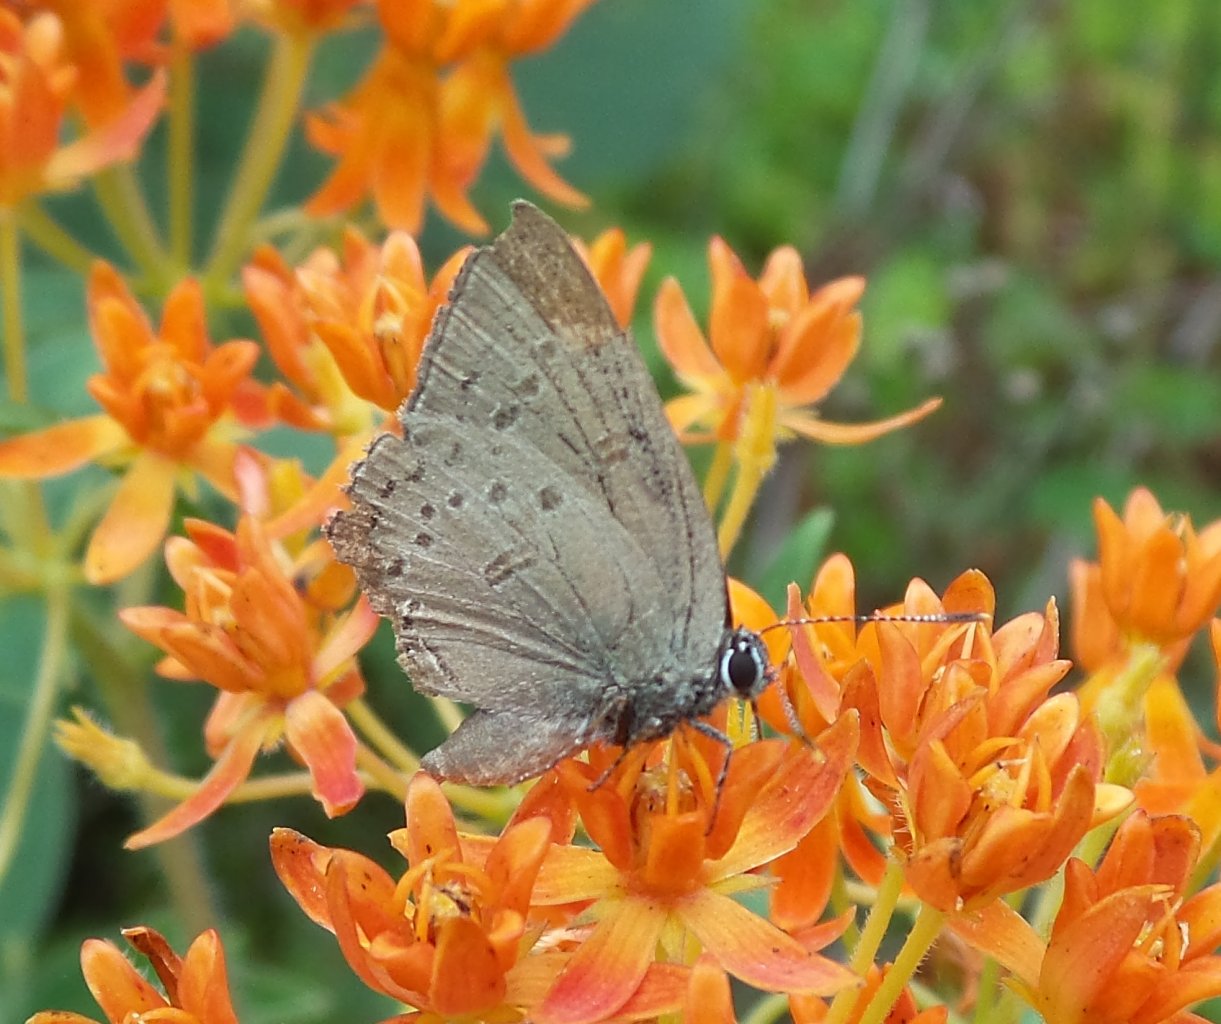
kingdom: Animalia
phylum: Arthropoda
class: Insecta
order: Lepidoptera
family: Lycaenidae
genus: Satyrium
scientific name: Satyrium edwardsii
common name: Edwards' Hairstreak
